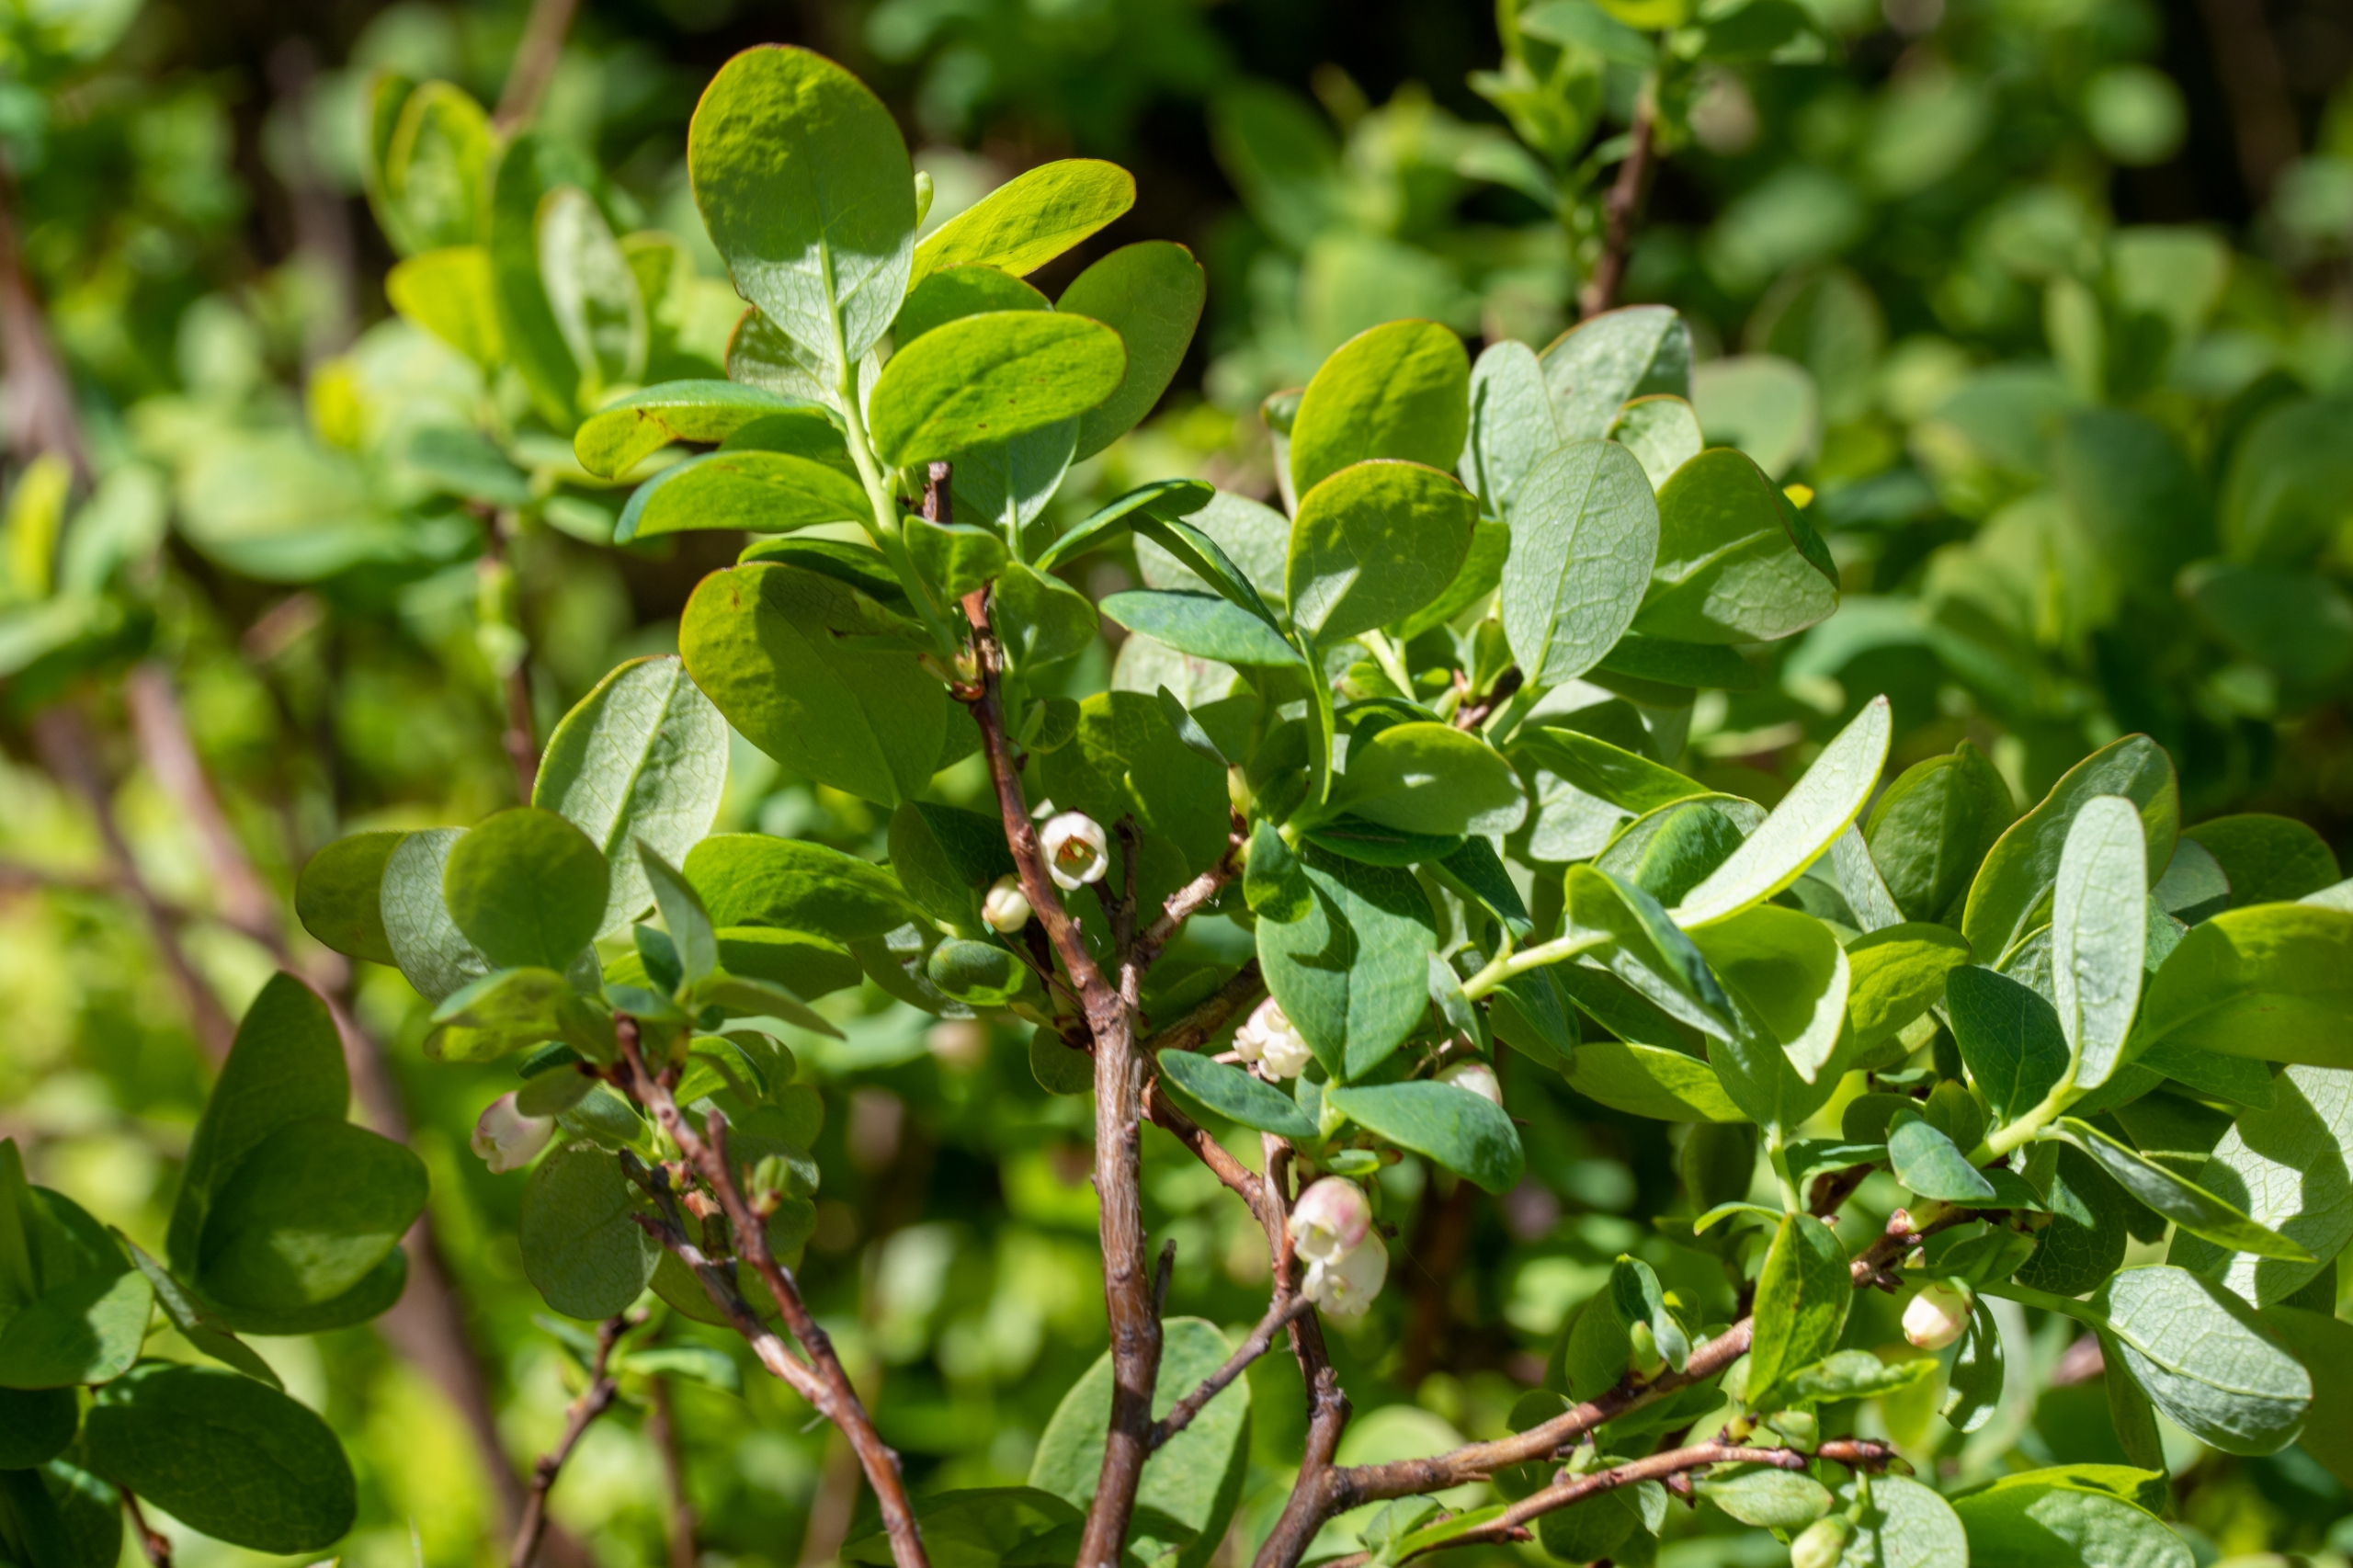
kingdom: Plantae
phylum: Tracheophyta
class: Magnoliopsida
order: Ericales
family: Ericaceae
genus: Vaccinium
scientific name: Vaccinium uliginosum
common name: Mose-bølle
